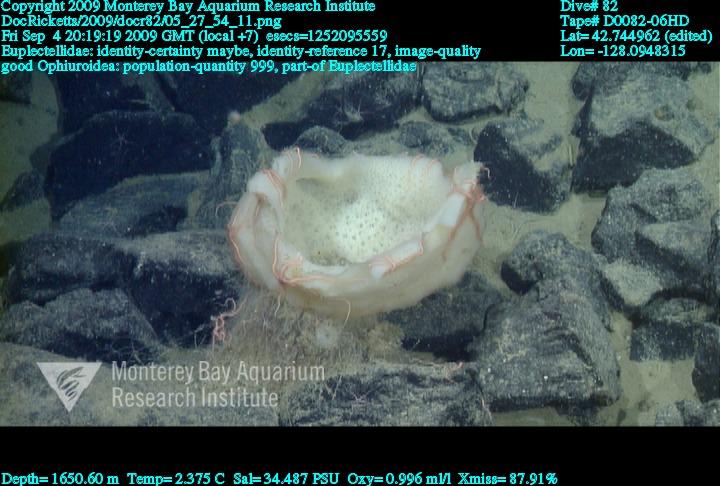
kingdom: Animalia
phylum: Porifera
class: Hexactinellida
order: Lyssacinosida
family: Euplectellidae
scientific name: Euplectellidae
